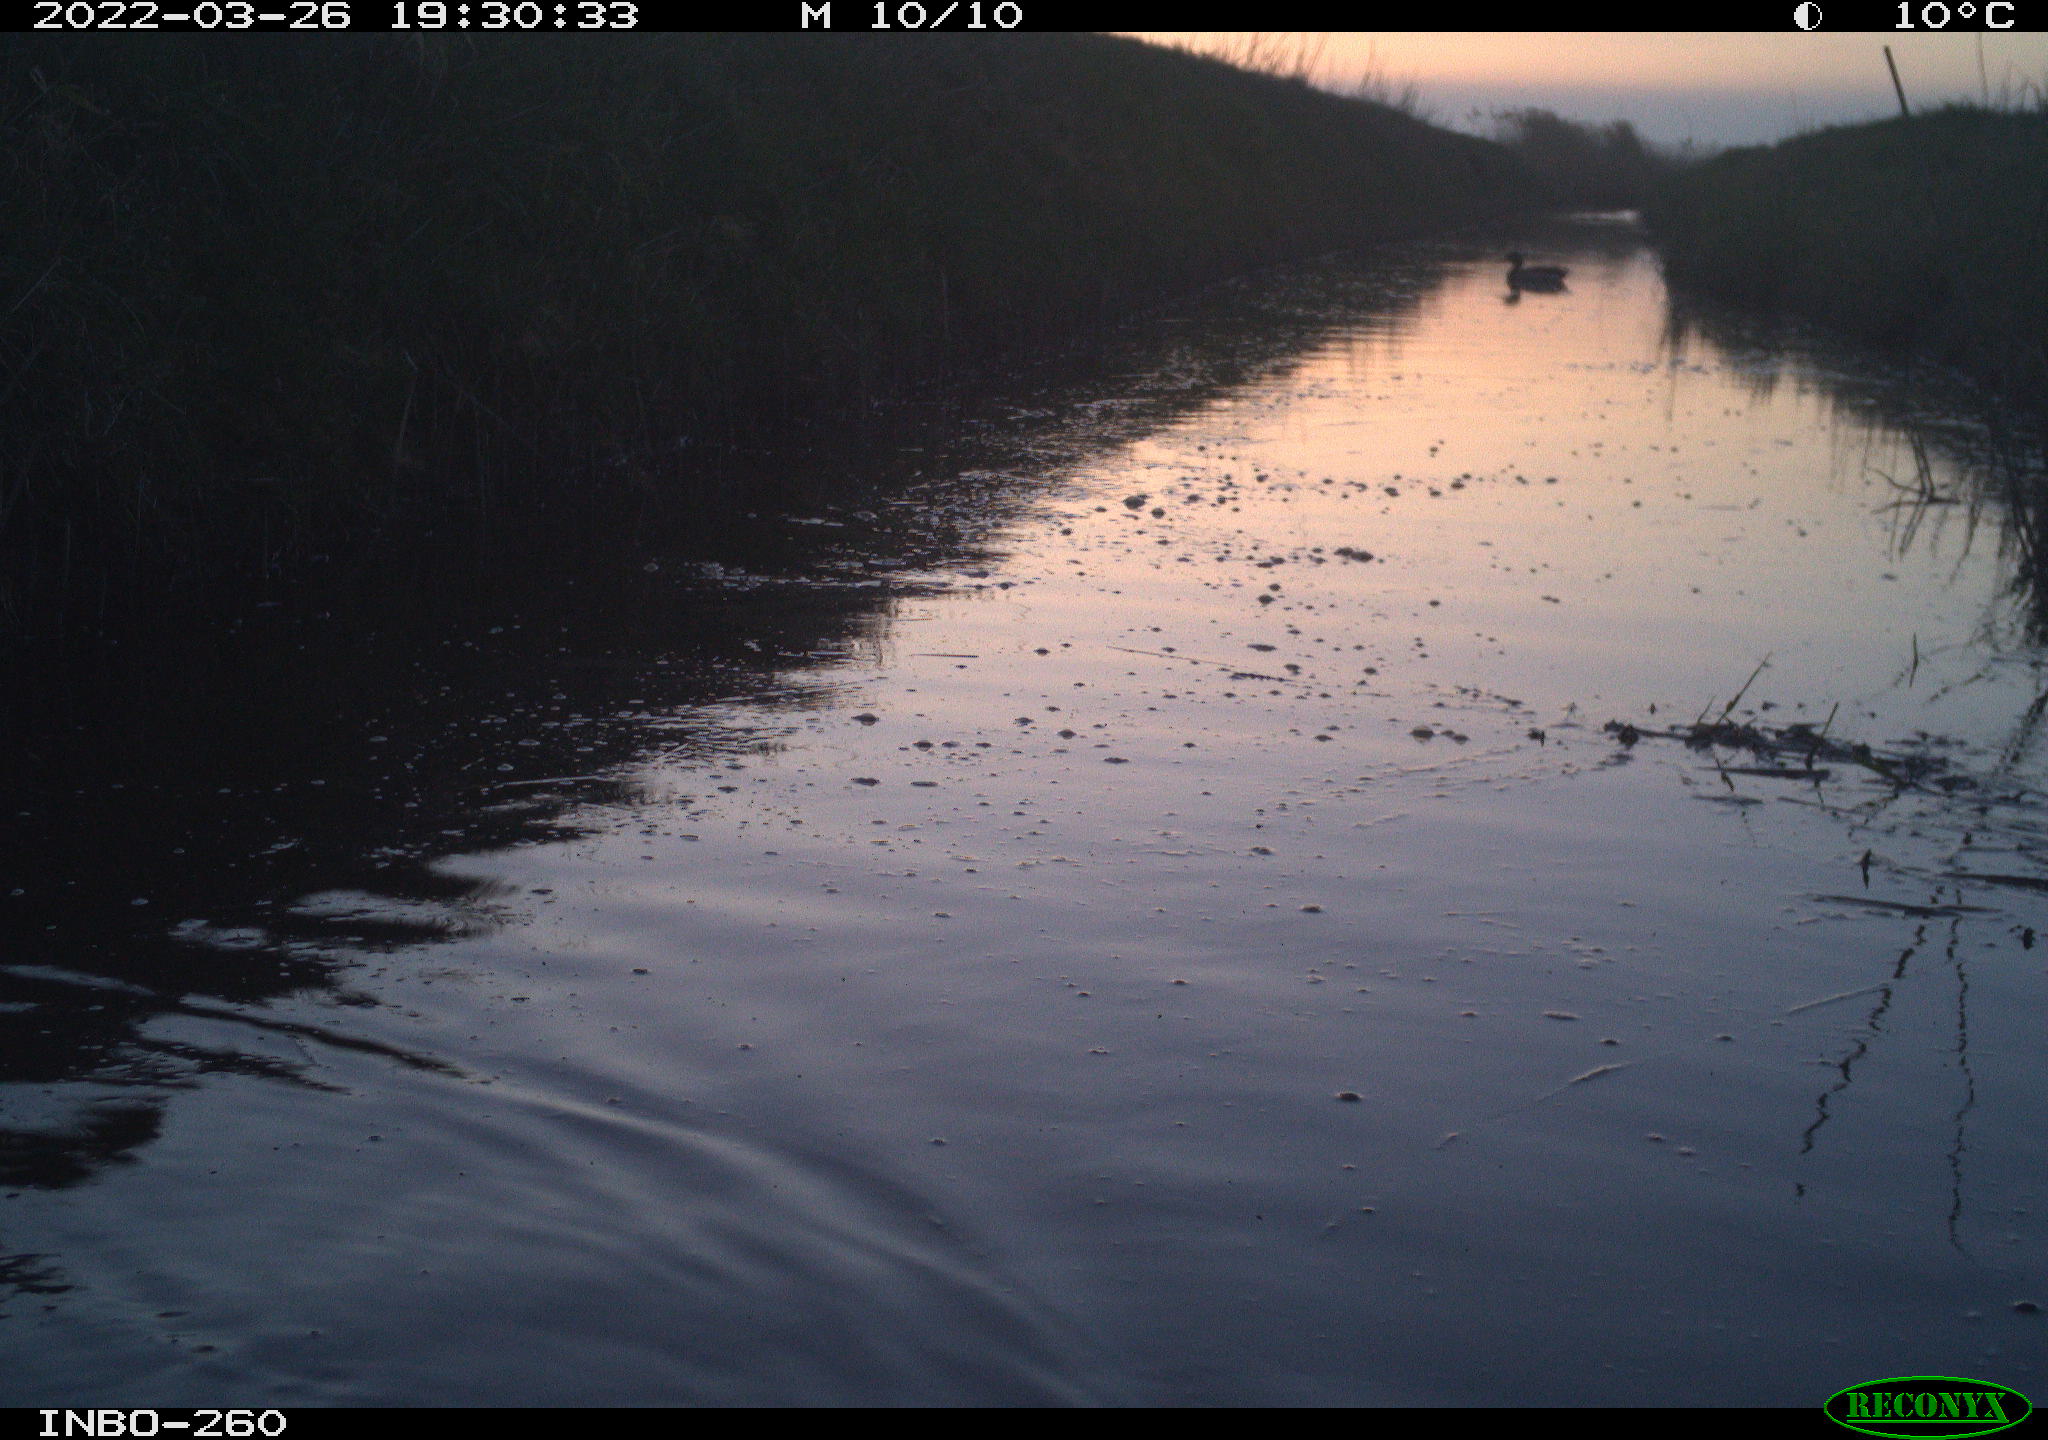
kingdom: Animalia
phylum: Chordata
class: Mammalia
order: Rodentia
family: Muridae
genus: Rattus
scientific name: Rattus norvegicus
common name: Brown rat
